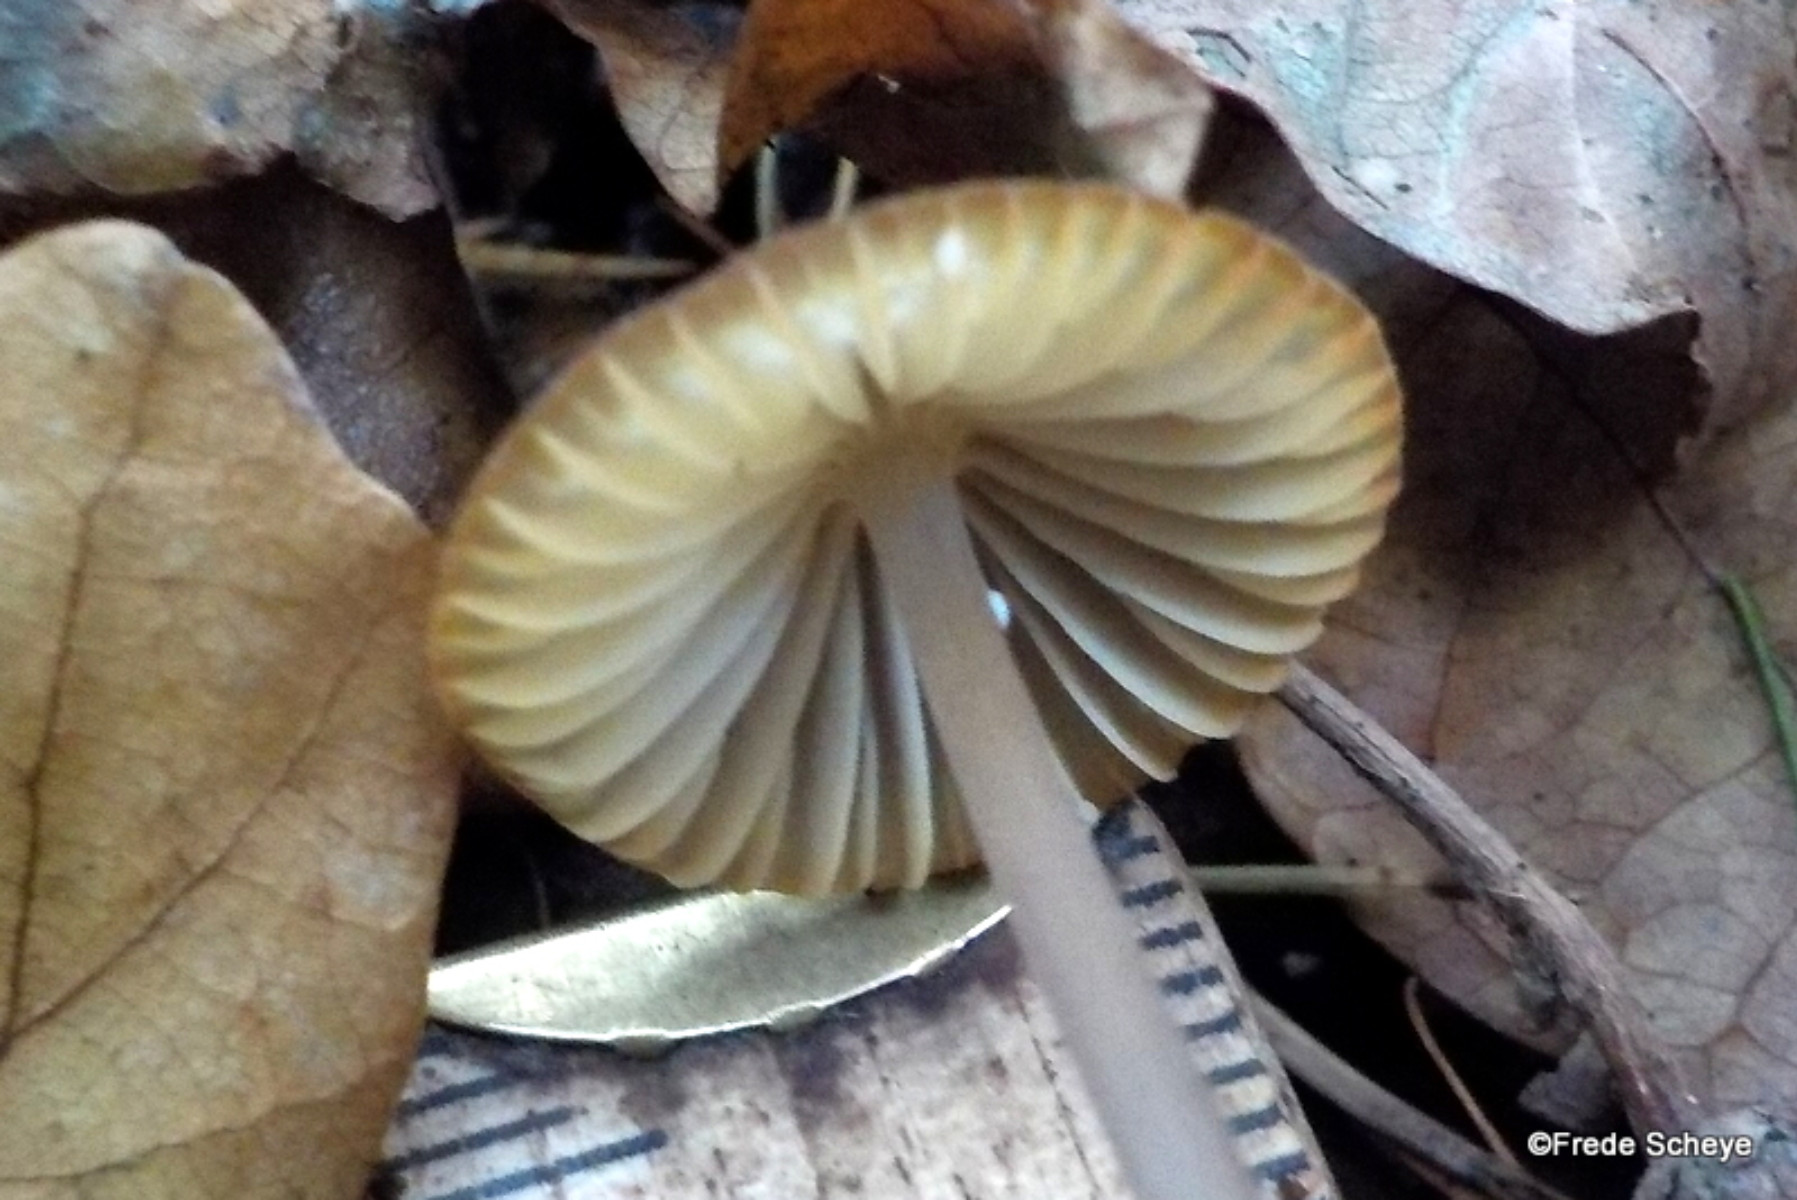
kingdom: Fungi
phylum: Basidiomycota
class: Agaricomycetes
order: Agaricales
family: Mycenaceae
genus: Mycena
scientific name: Mycena galopus
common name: hvidmælket huesvamp
